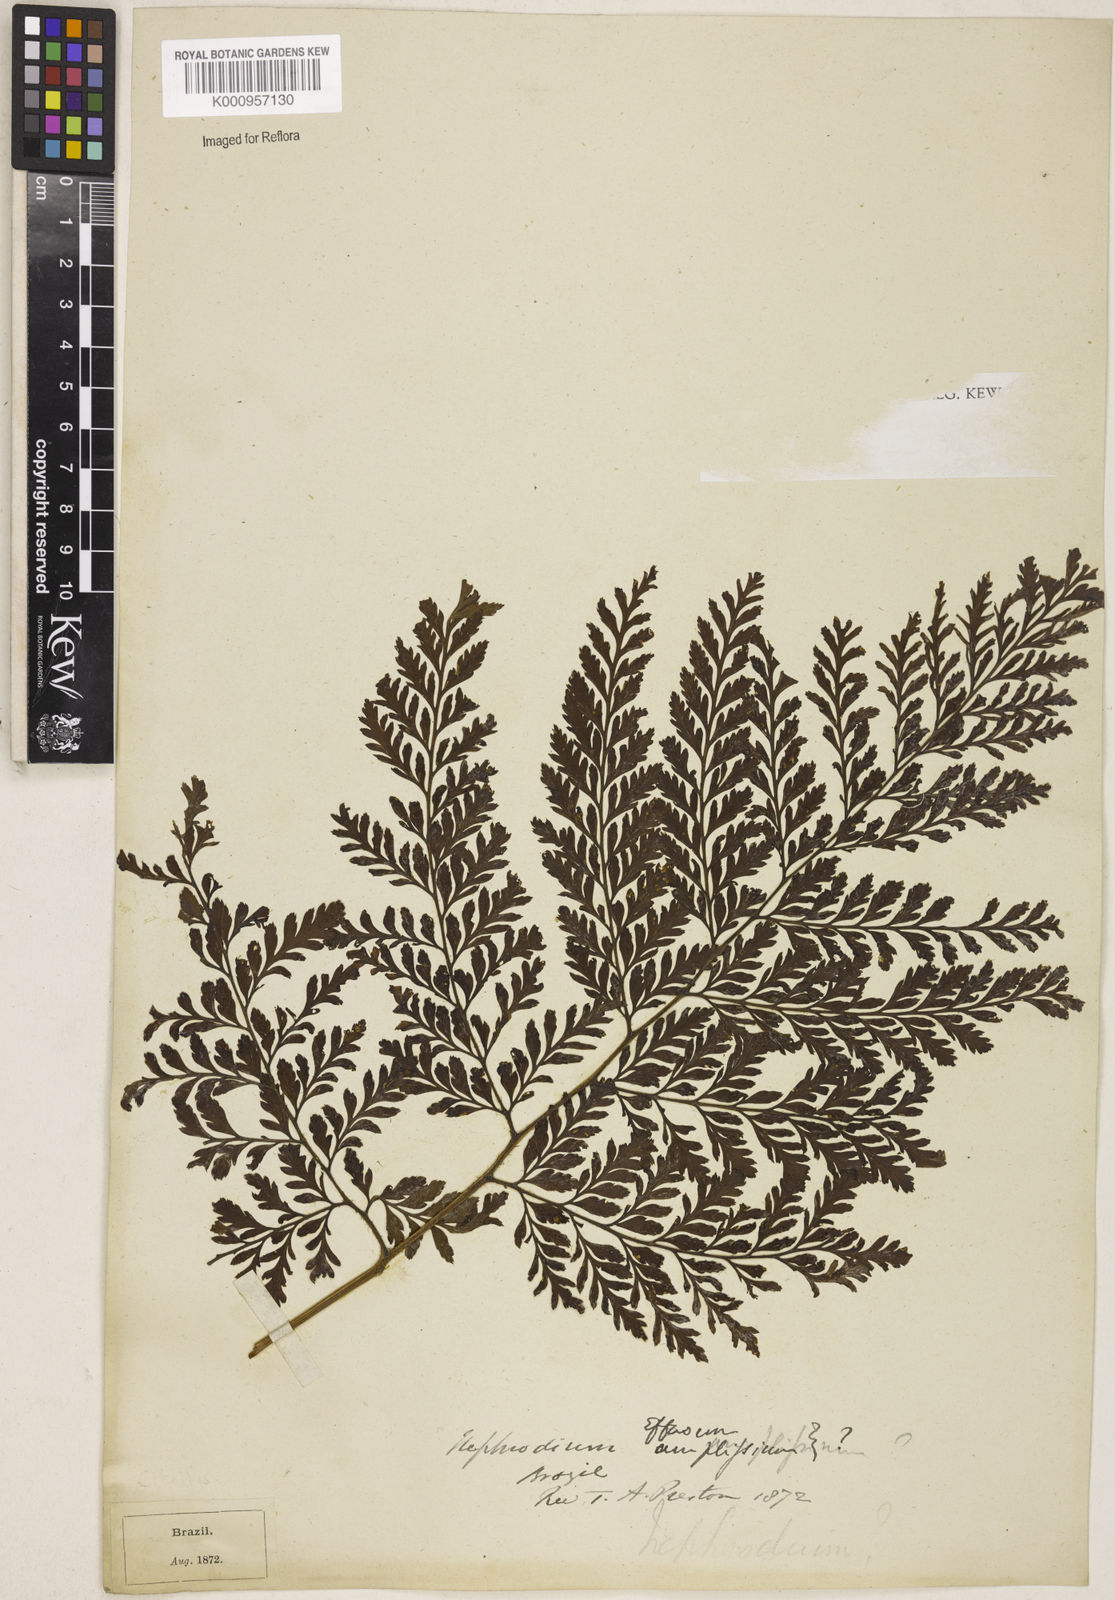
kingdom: Plantae
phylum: Tracheophyta
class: Polypodiopsida
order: Polypodiales
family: Dryopteridaceae
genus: Parapolystichum
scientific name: Parapolystichum effusum
